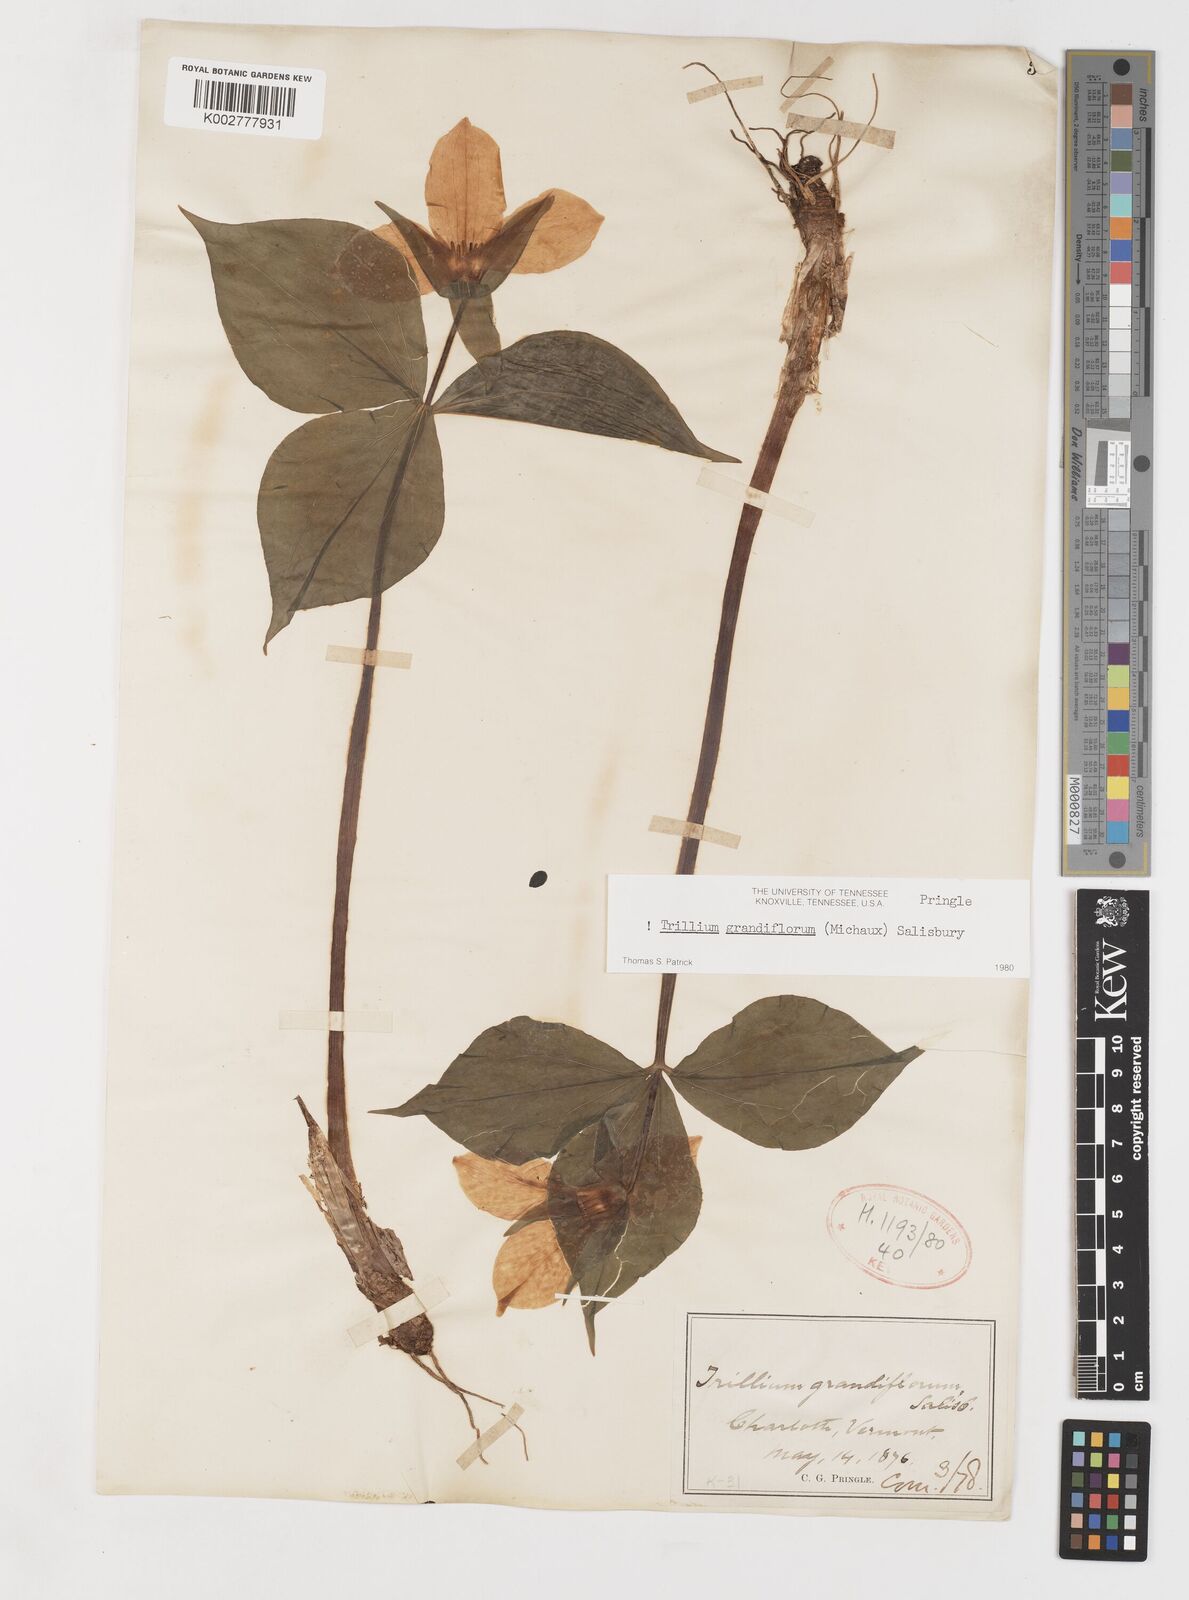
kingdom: Plantae
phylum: Tracheophyta
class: Liliopsida
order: Liliales
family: Melanthiaceae
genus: Trillium
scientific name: Trillium grandiflorum
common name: Great white trillium
